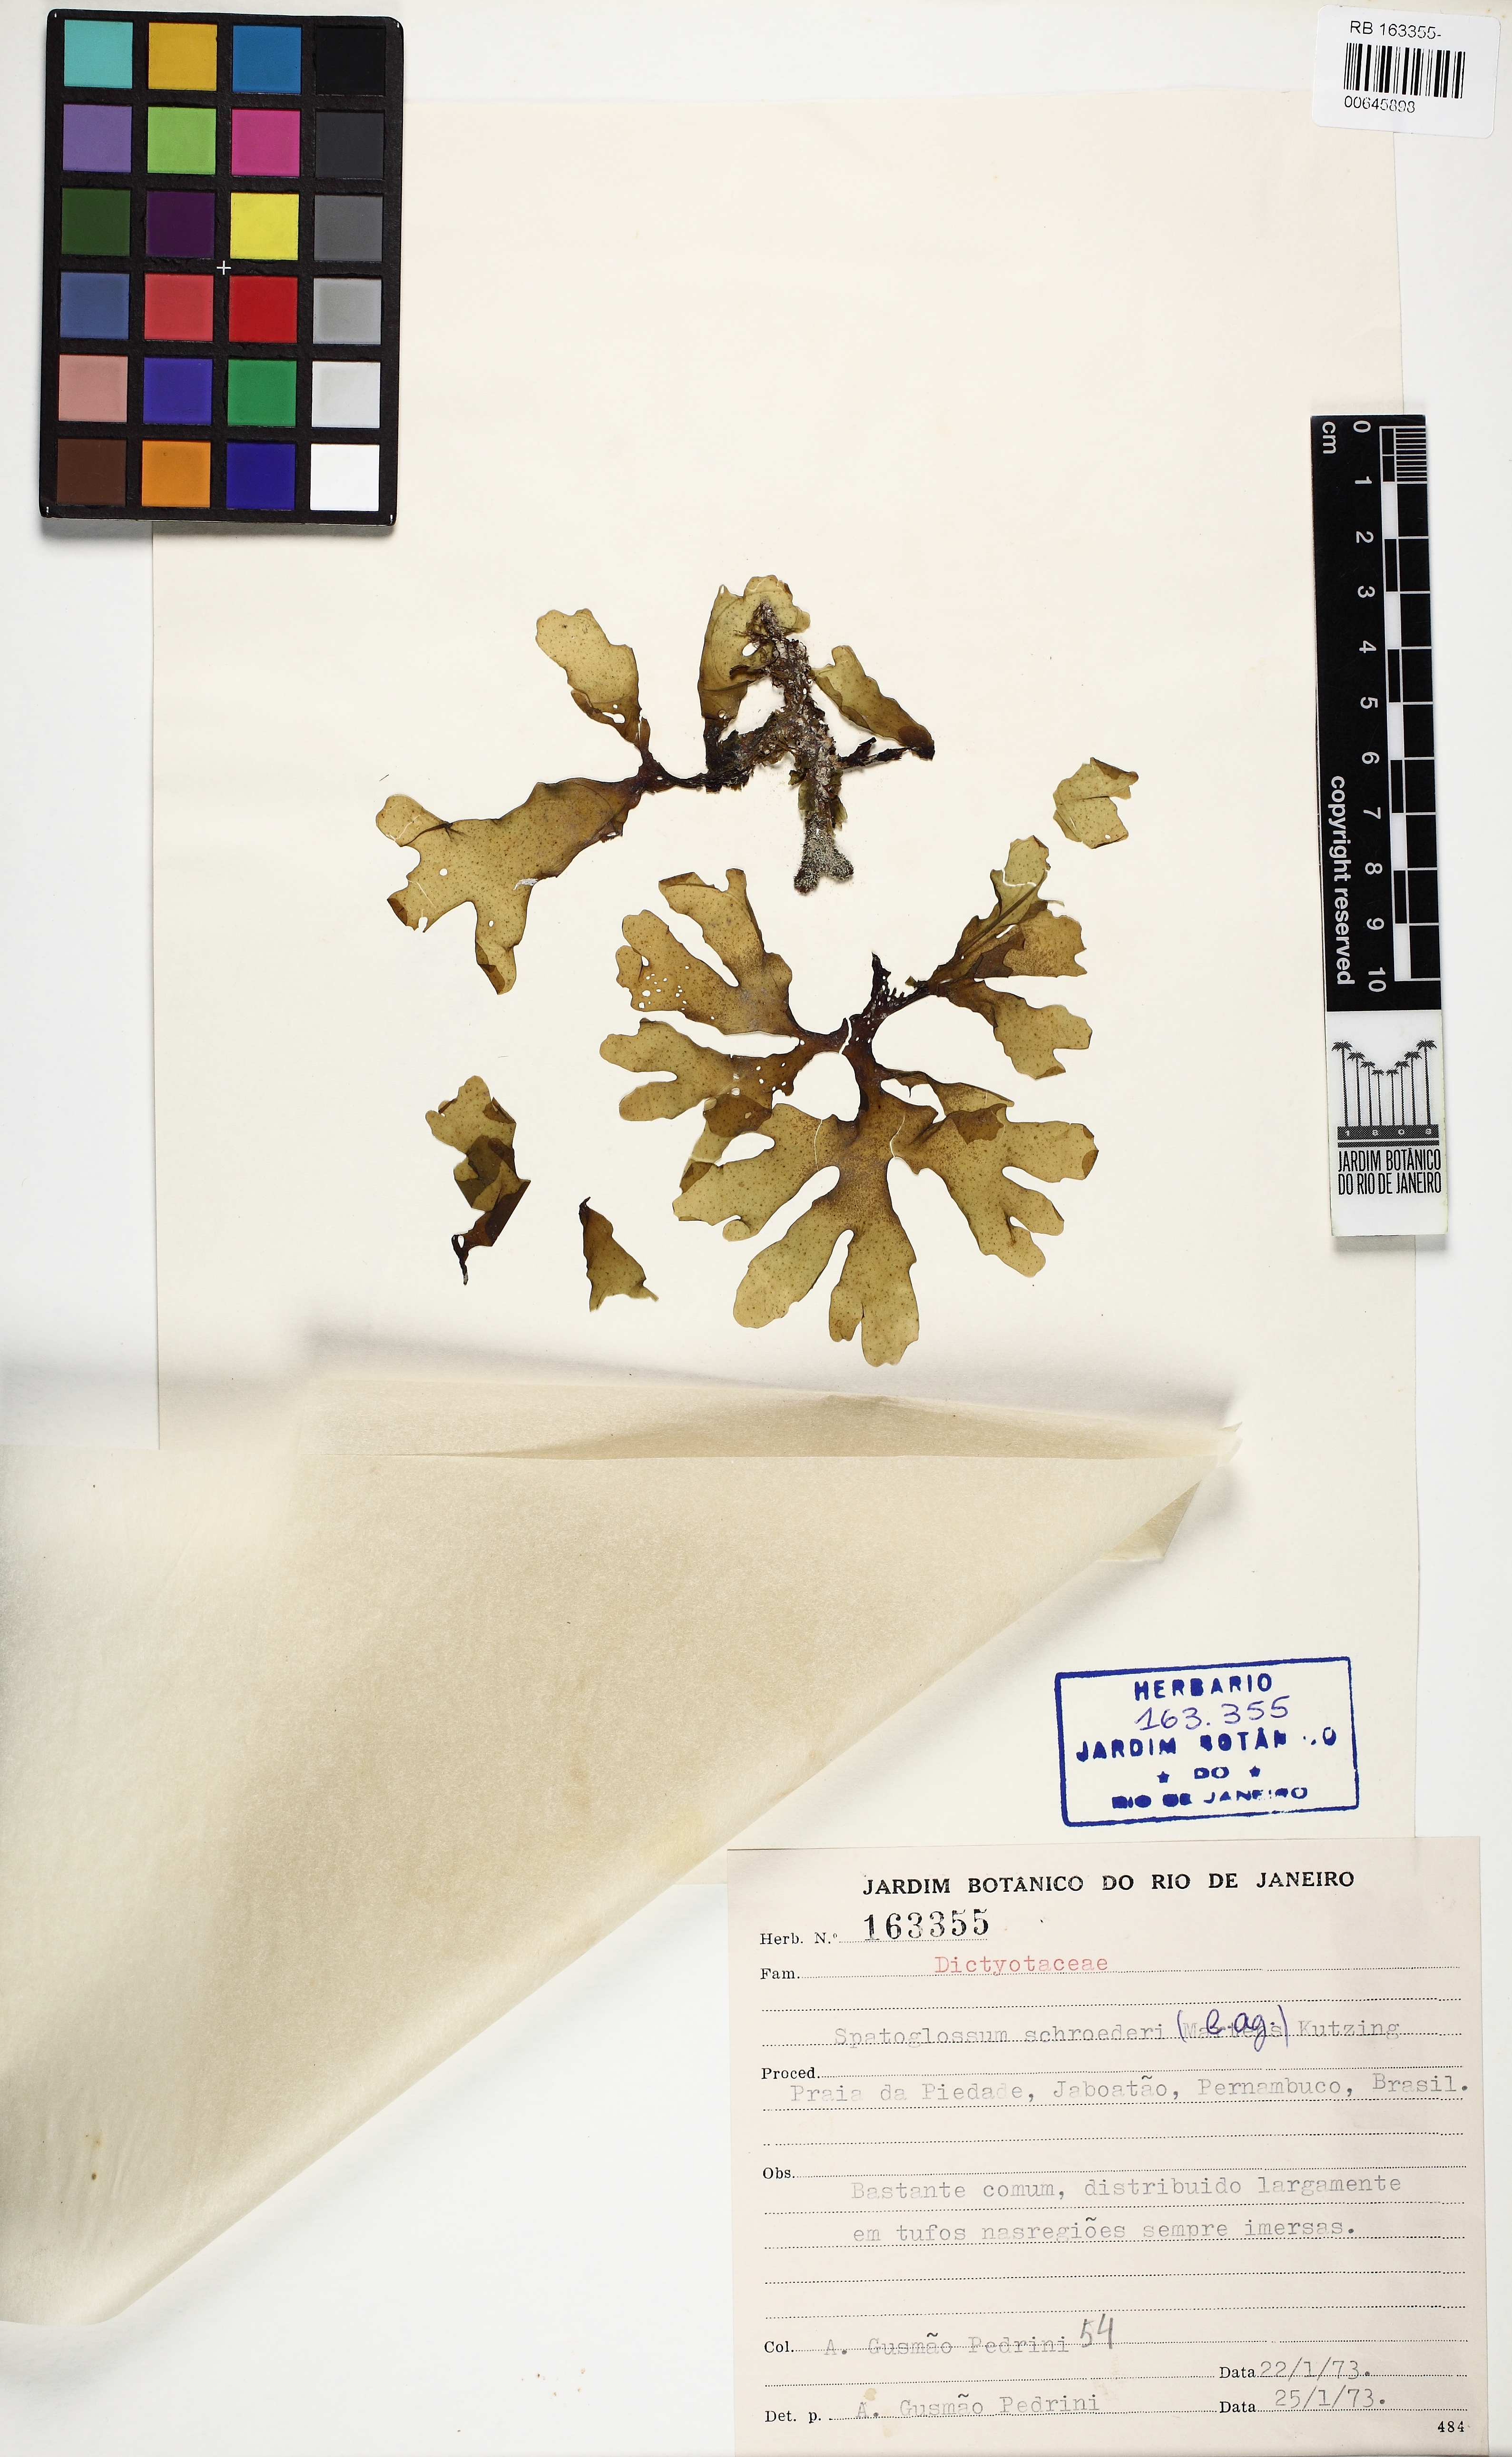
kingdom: Chromista
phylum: Ochrophyta
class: Phaeophyceae
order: Dictyotales
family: Dictyotaceae
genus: Spatoglossum
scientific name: Spatoglossum schroederi
